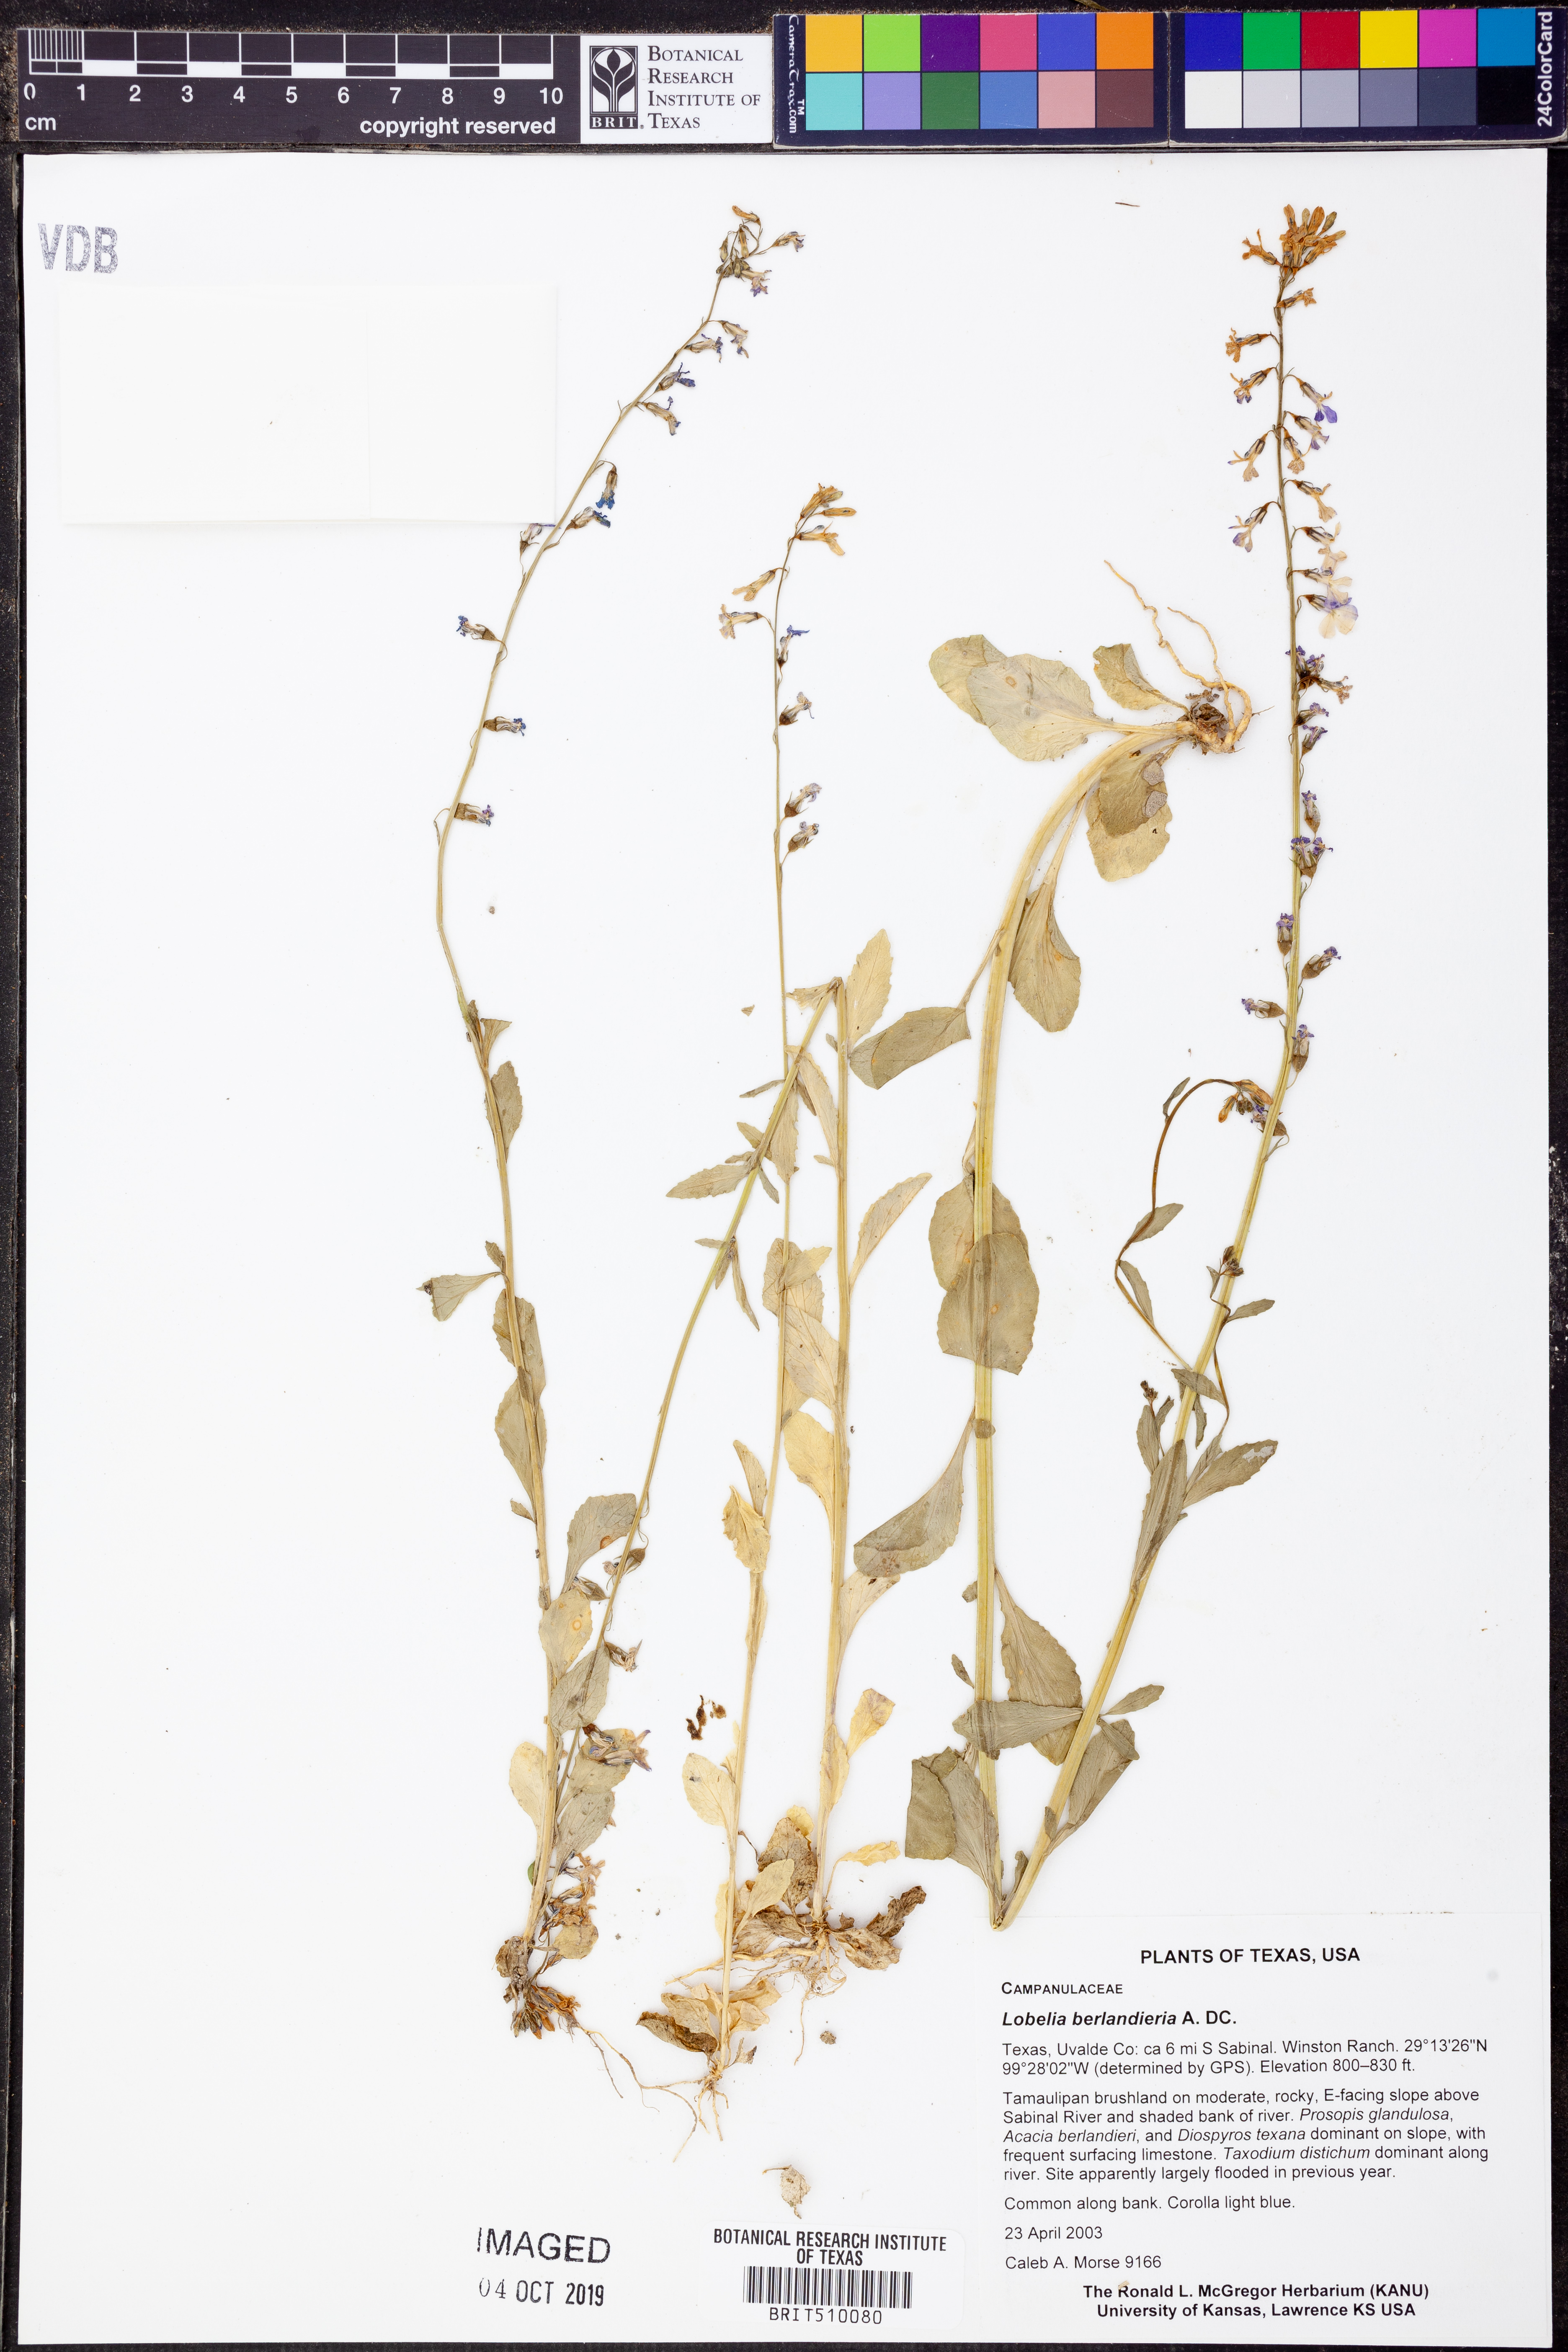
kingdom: Plantae
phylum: Tracheophyta
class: Magnoliopsida
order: Asterales
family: Campanulaceae
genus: Lobelia
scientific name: Lobelia berlandieri
